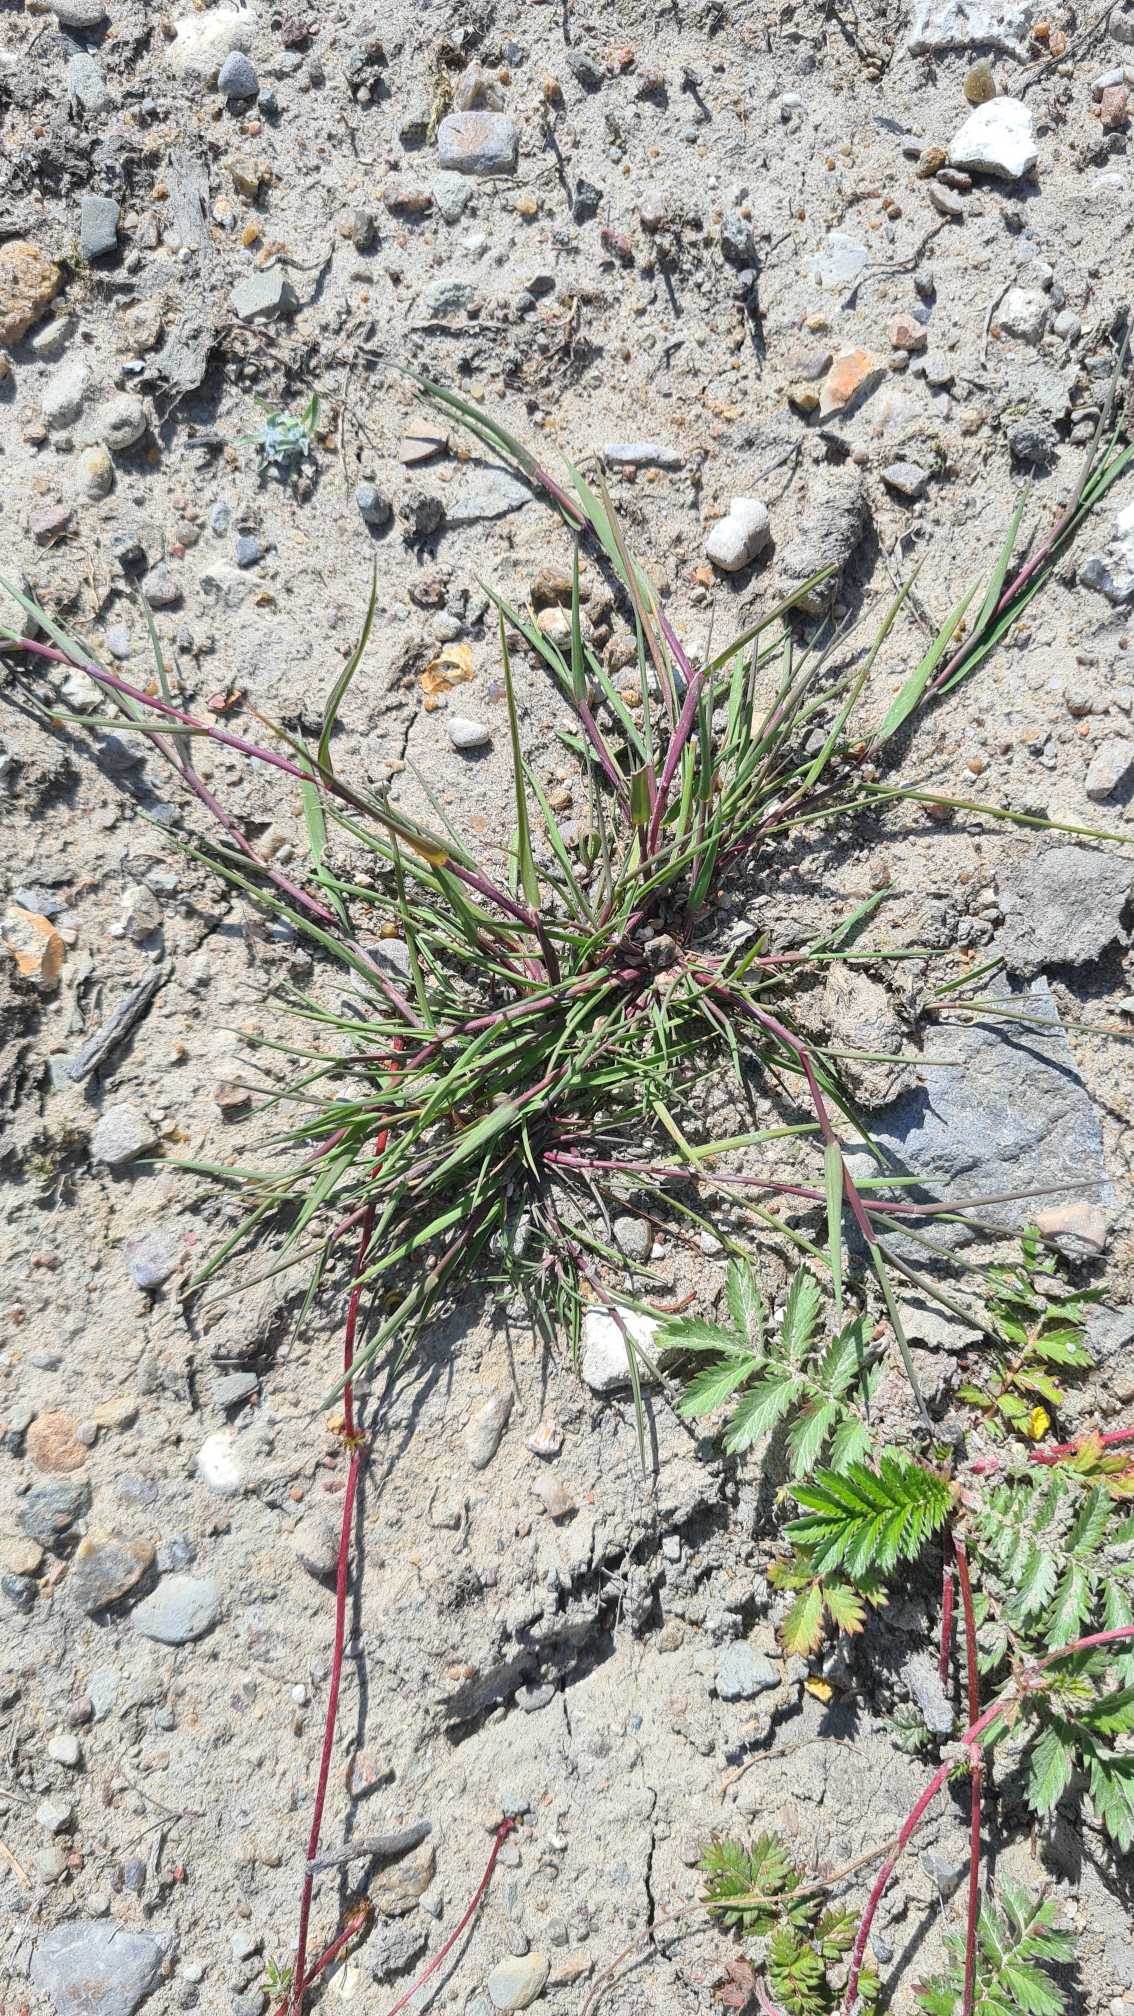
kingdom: Plantae
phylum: Tracheophyta
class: Liliopsida
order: Poales
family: Poaceae
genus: Alopecurus
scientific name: Alopecurus geniculatus
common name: Knæbøjet rævehale
